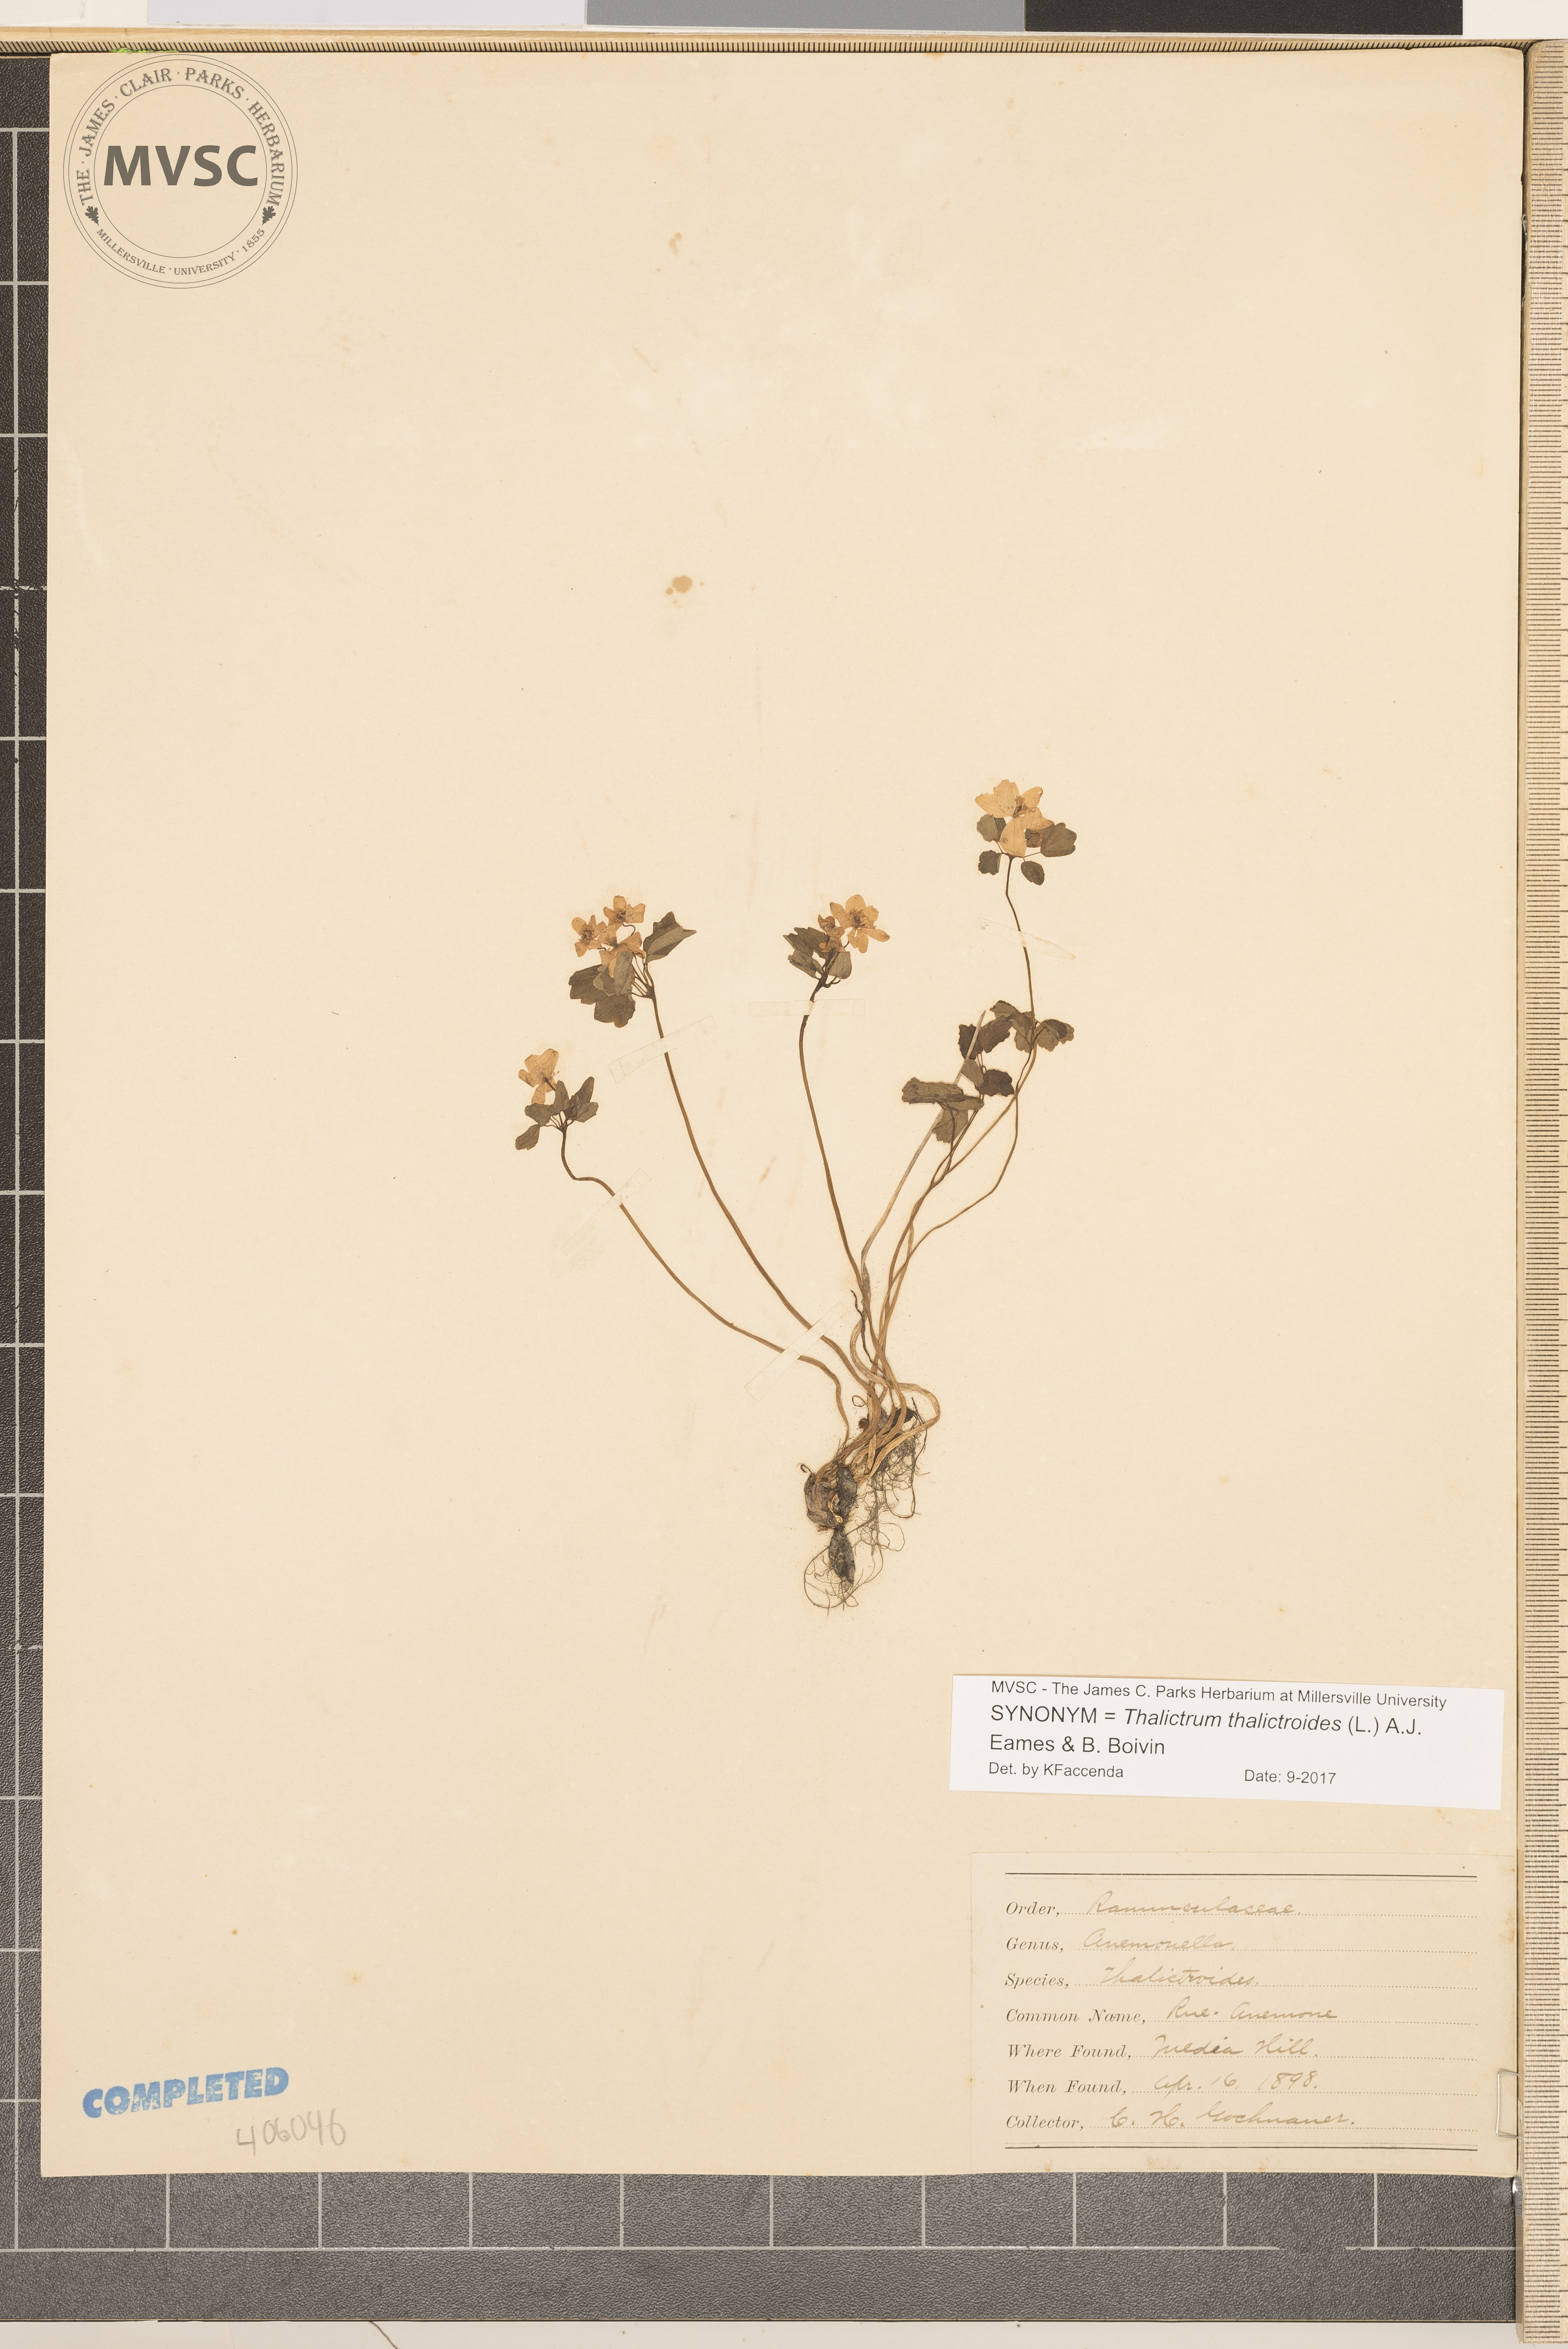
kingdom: Plantae
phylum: Tracheophyta
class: Magnoliopsida
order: Ranunculales
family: Ranunculaceae
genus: Thalictrum
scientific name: Thalictrum thalictroides
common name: Rue-anemone
